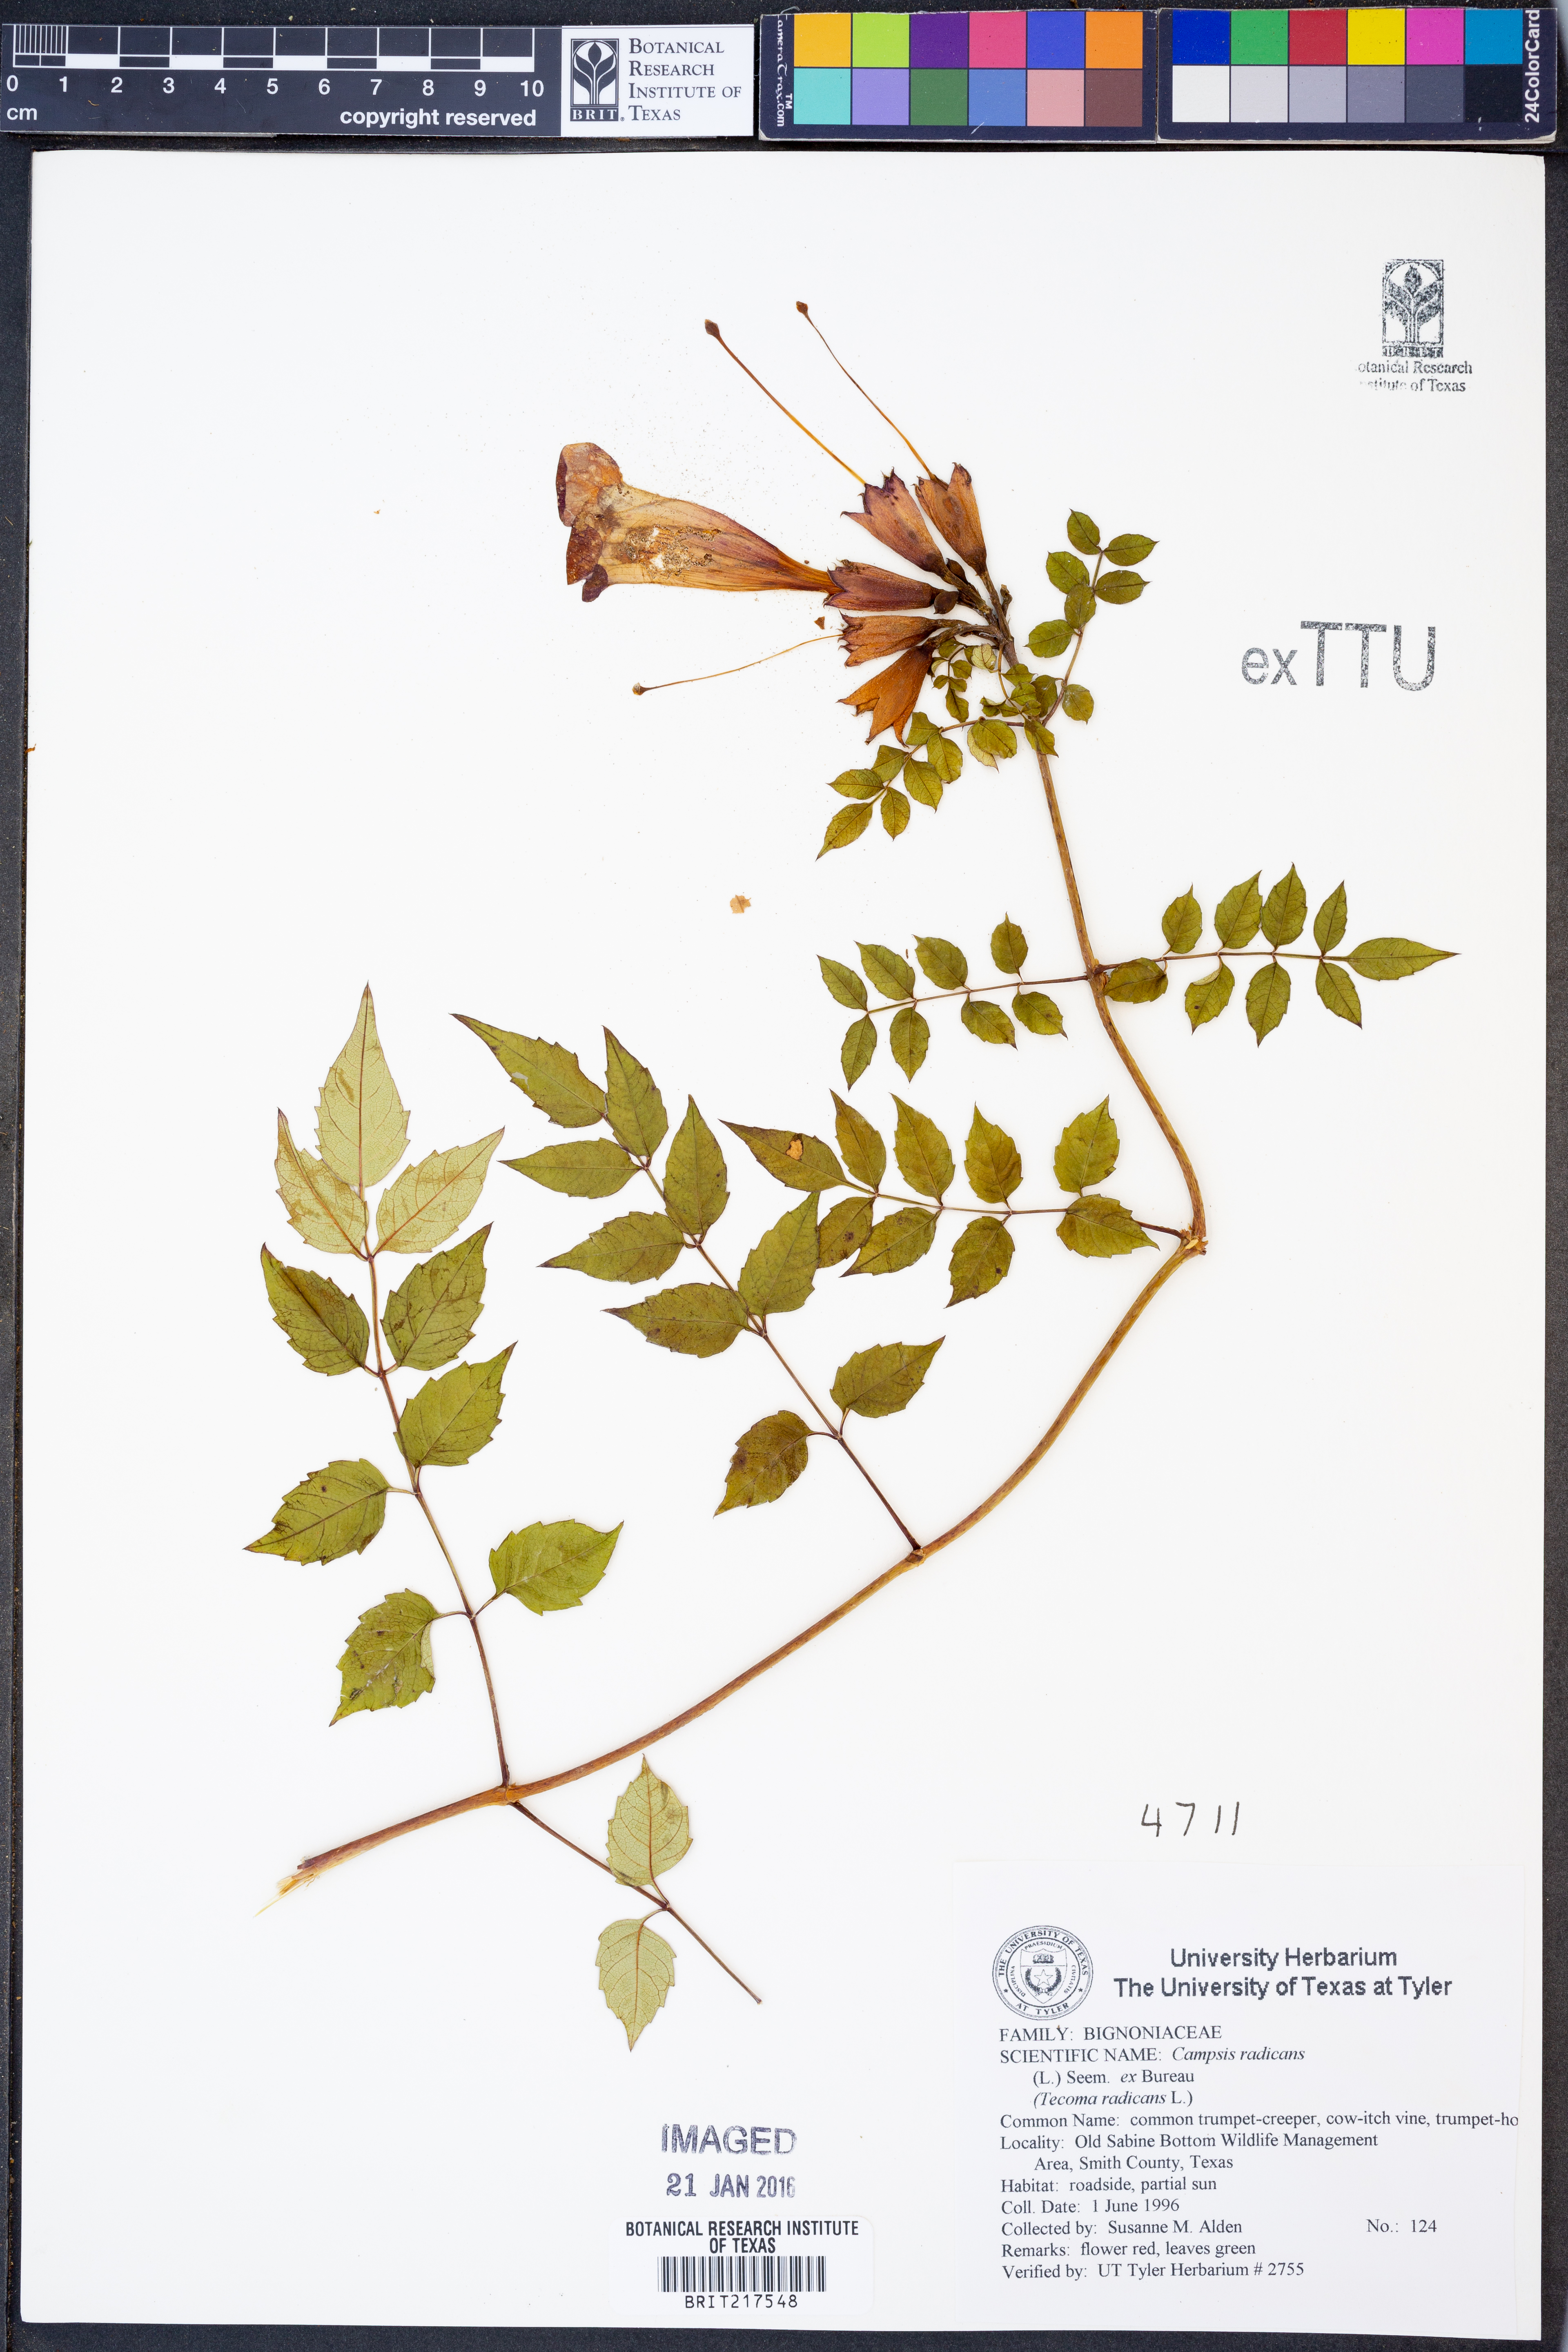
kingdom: Plantae
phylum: Tracheophyta
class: Magnoliopsida
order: Lamiales
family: Bignoniaceae
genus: Campsis
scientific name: Campsis radicans
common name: Trumpet-creeper
